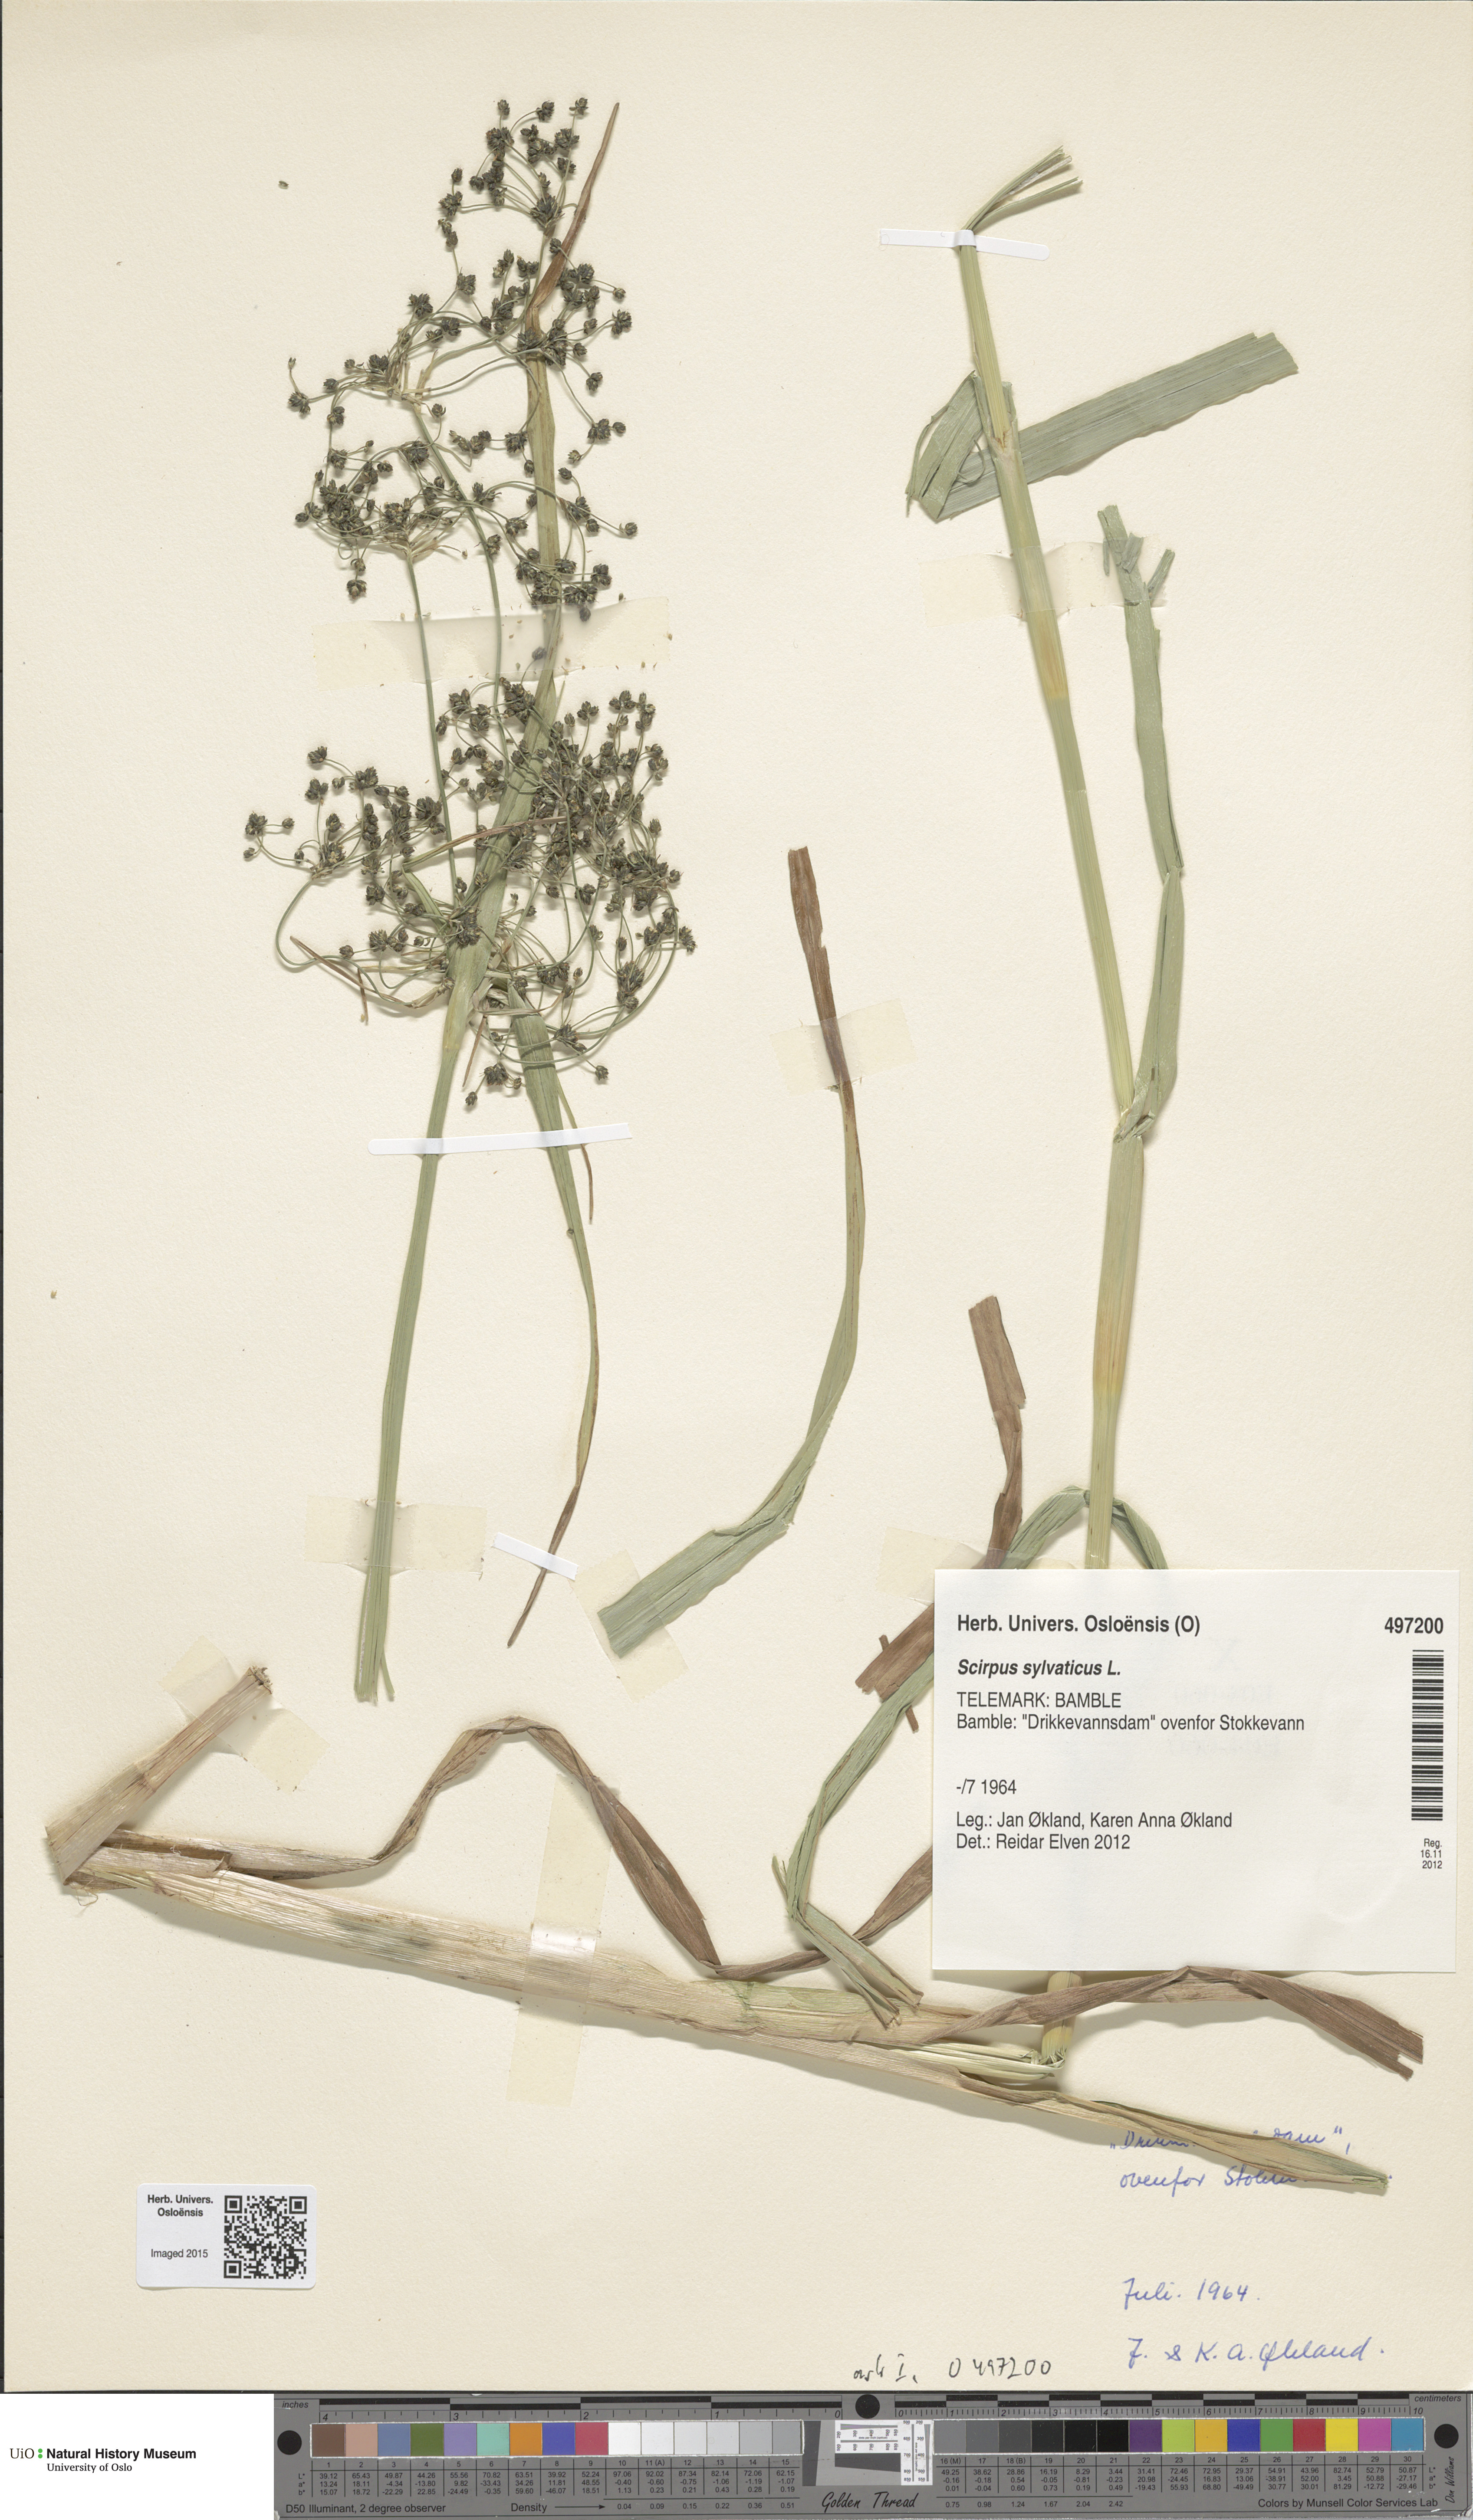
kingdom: Plantae
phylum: Tracheophyta
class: Liliopsida
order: Poales
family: Cyperaceae
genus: Scirpus
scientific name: Scirpus sylvaticus
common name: Wood club-rush
